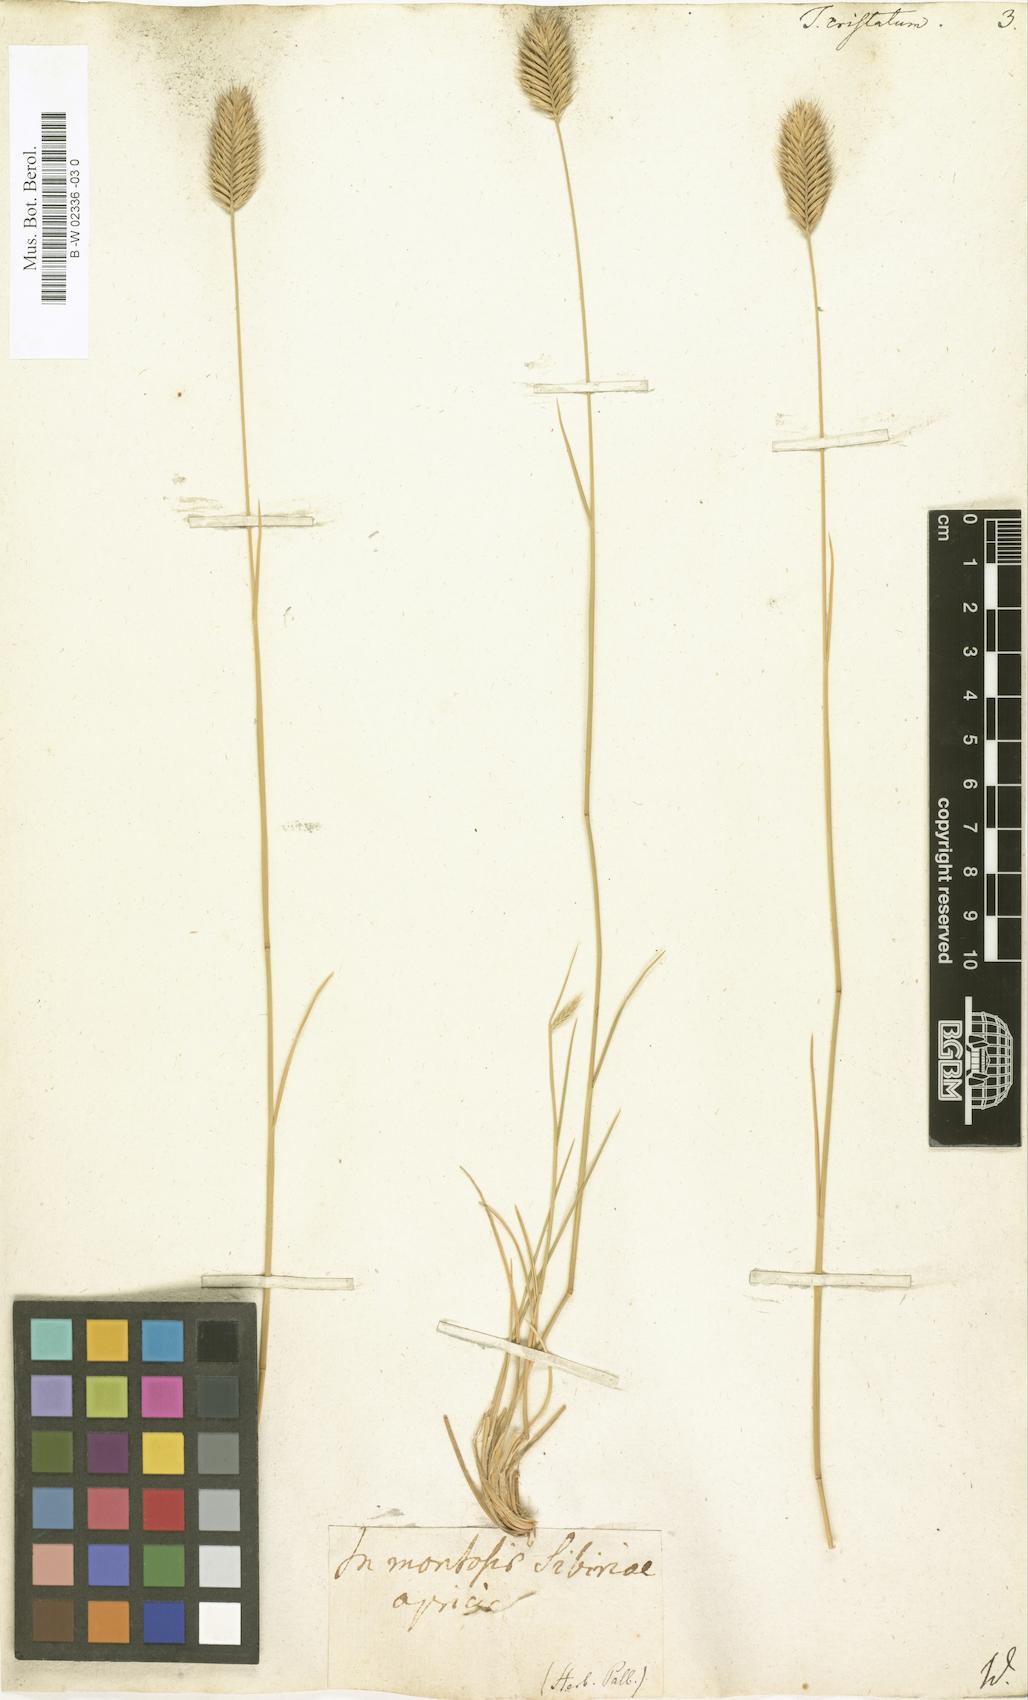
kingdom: Plantae
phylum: Tracheophyta
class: Liliopsida
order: Poales
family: Poaceae
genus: Agropyron
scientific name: Agropyron
